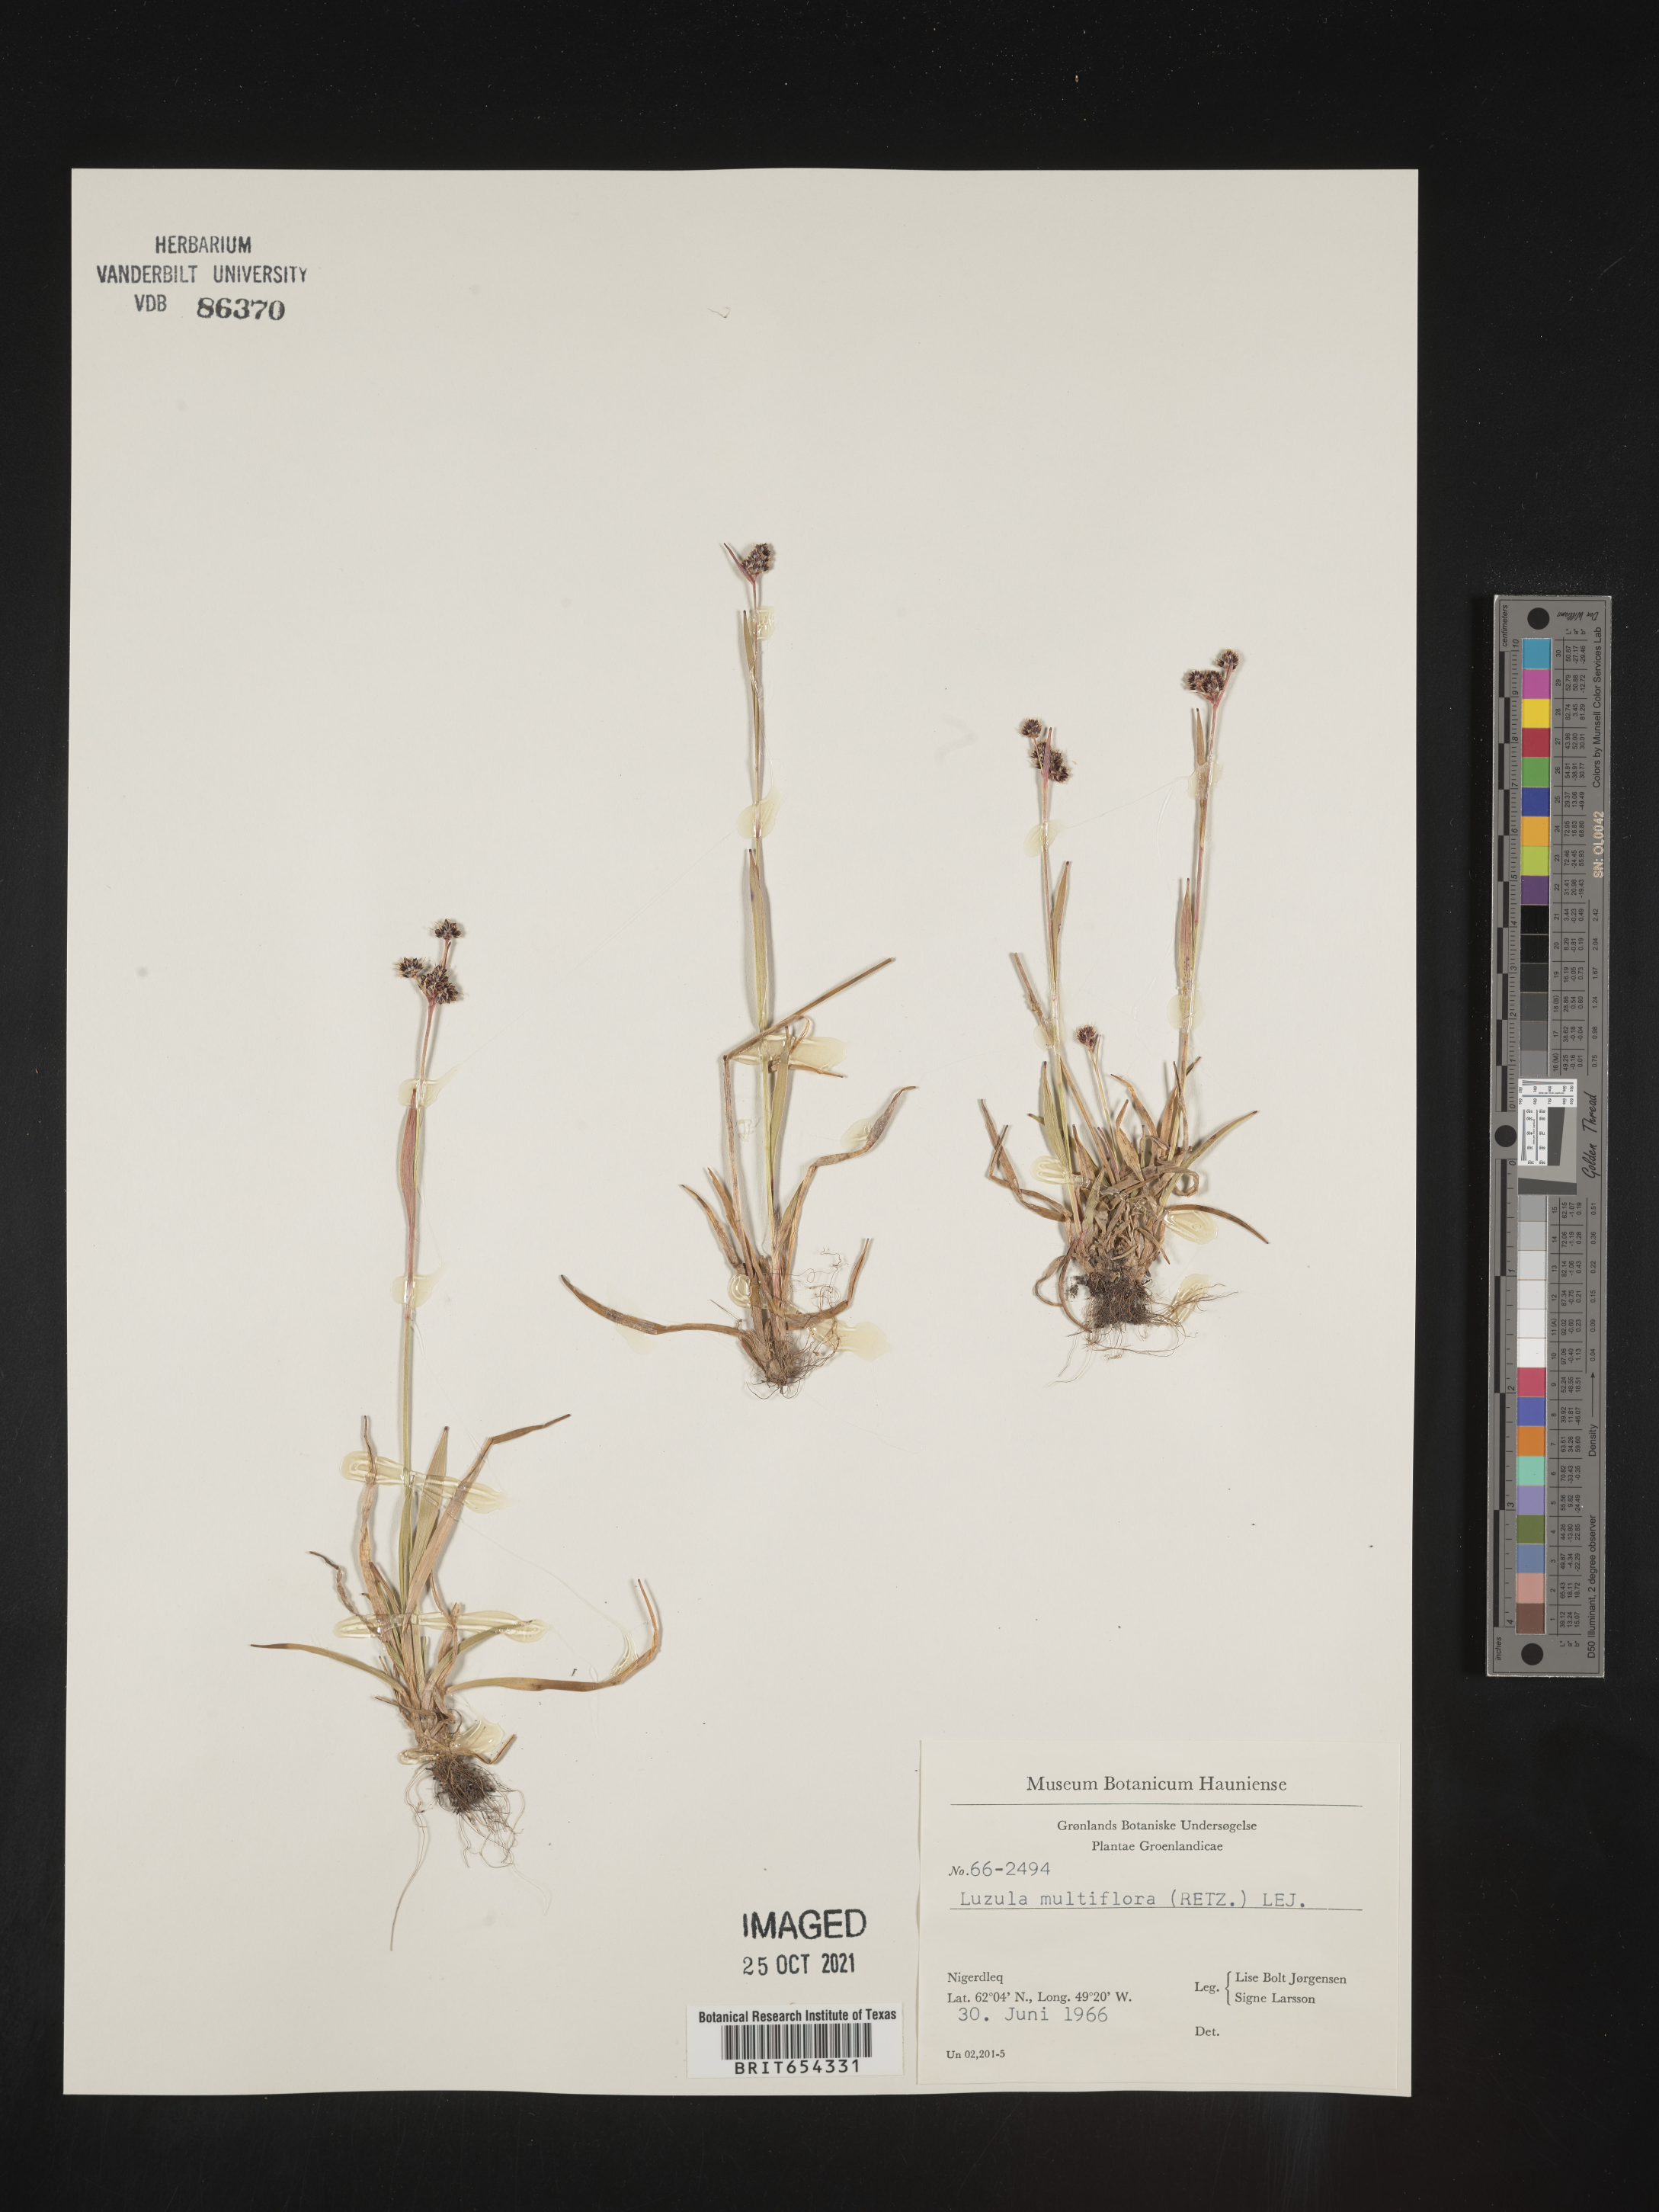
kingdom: Plantae
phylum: Tracheophyta
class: Liliopsida
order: Poales
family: Juncaceae
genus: Luzula
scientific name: Luzula
